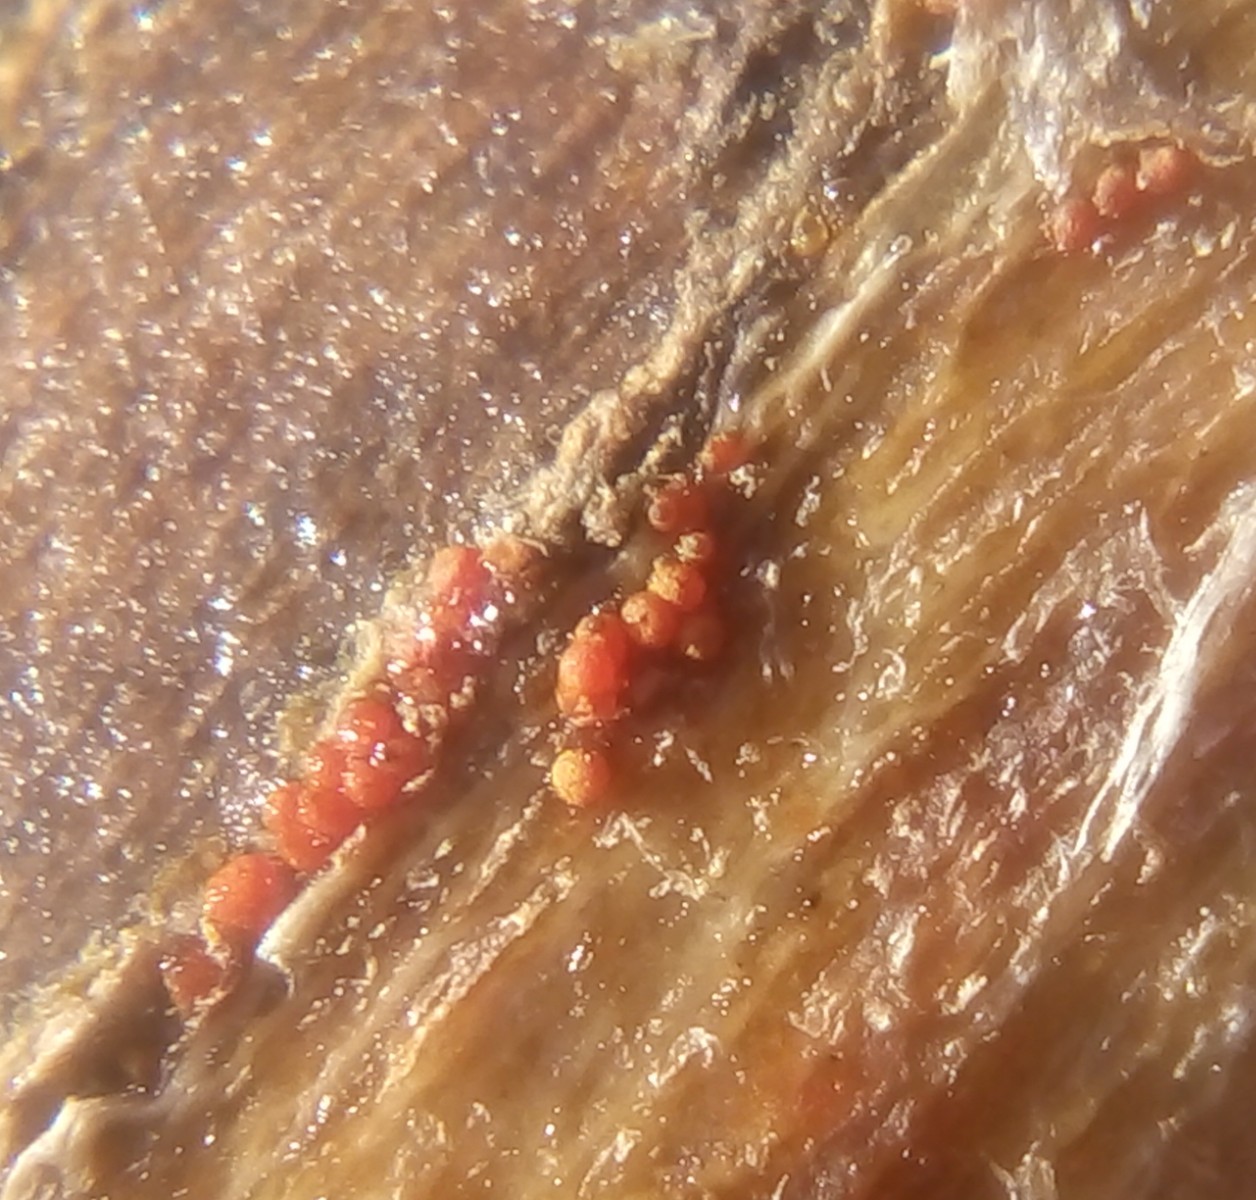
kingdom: Fungi
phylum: Ascomycota
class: Sordariomycetes
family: Thyridiaceae
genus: Thyronectria
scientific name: Thyronectria sinopica
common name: vedbend-cinnobersvamp
